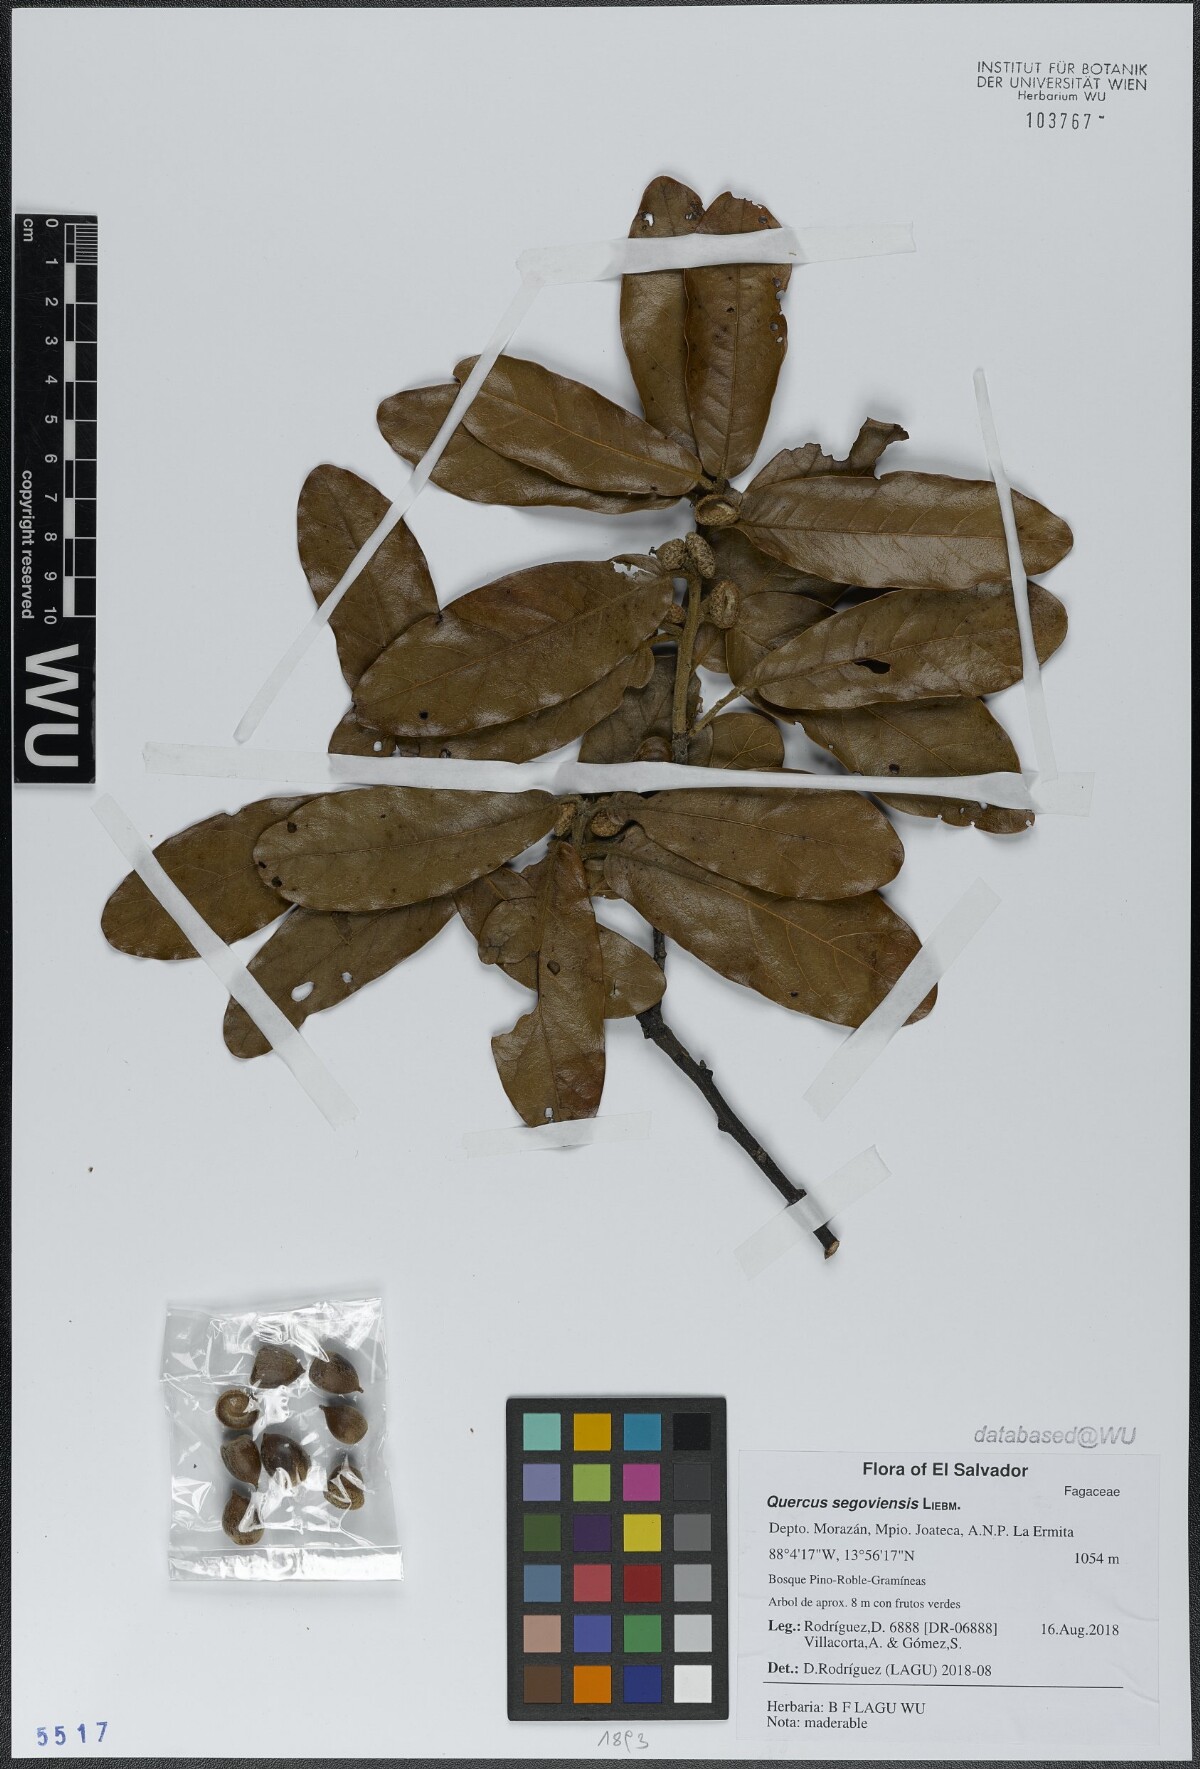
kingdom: Plantae
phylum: Tracheophyta
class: Magnoliopsida
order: Fagales
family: Fagaceae
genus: Quercus
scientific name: Quercus segoviensis
